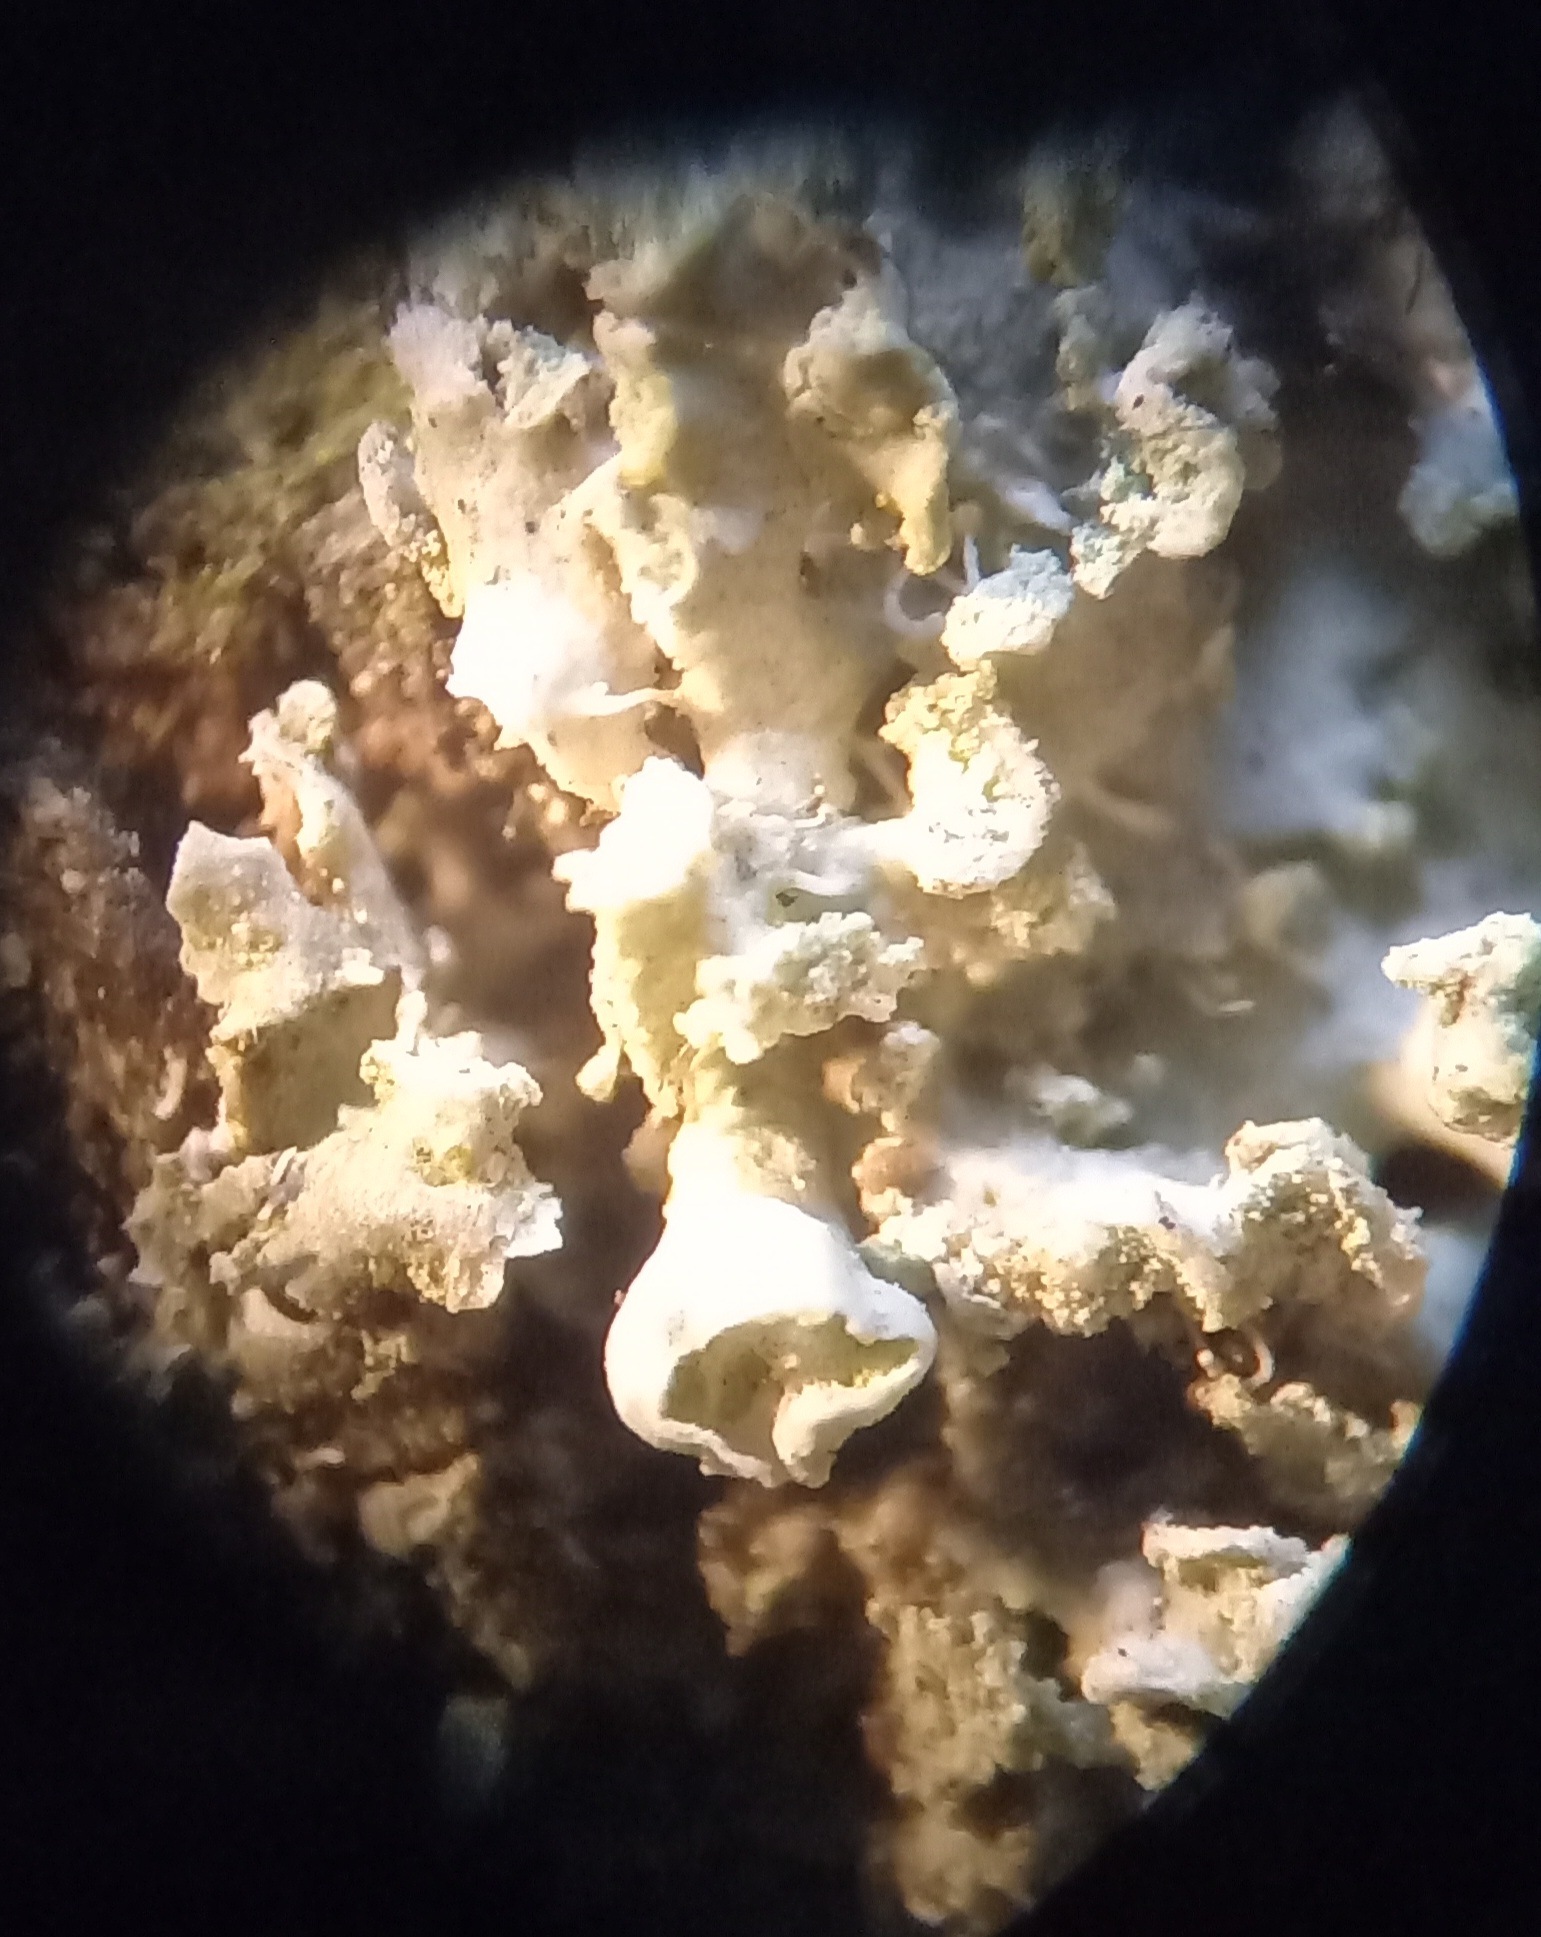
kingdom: Fungi
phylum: Ascomycota
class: Lecanoromycetes
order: Caliciales
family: Physciaceae
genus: Physcia
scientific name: Physcia tenella
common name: spæd rosetlav
